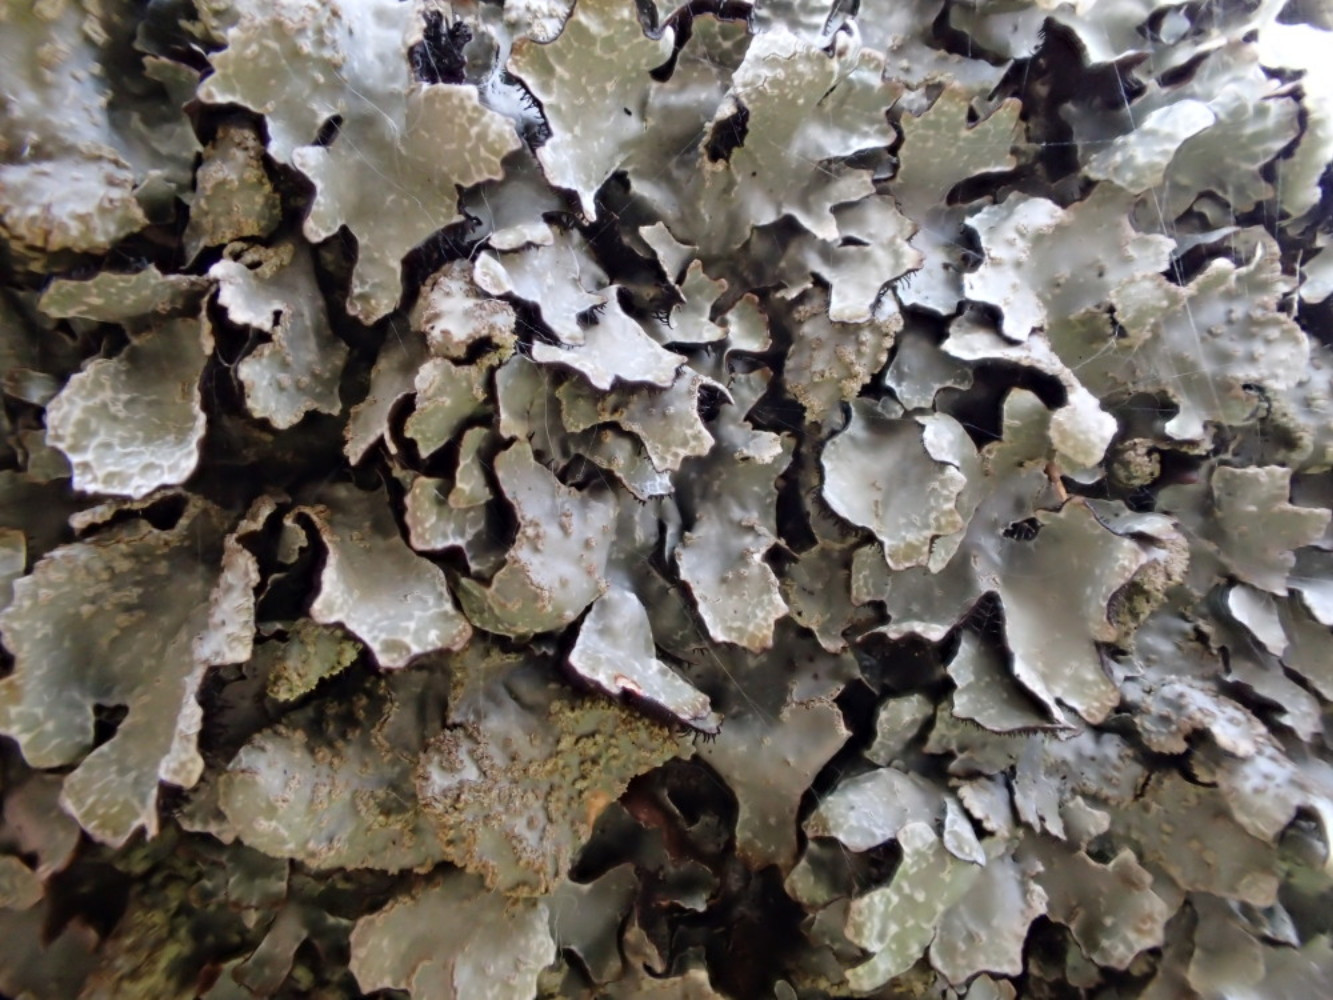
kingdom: Fungi
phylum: Ascomycota
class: Lecanoromycetes
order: Lecanorales
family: Parmeliaceae
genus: Parmelia
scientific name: Parmelia sulcata
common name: rynket skållav
